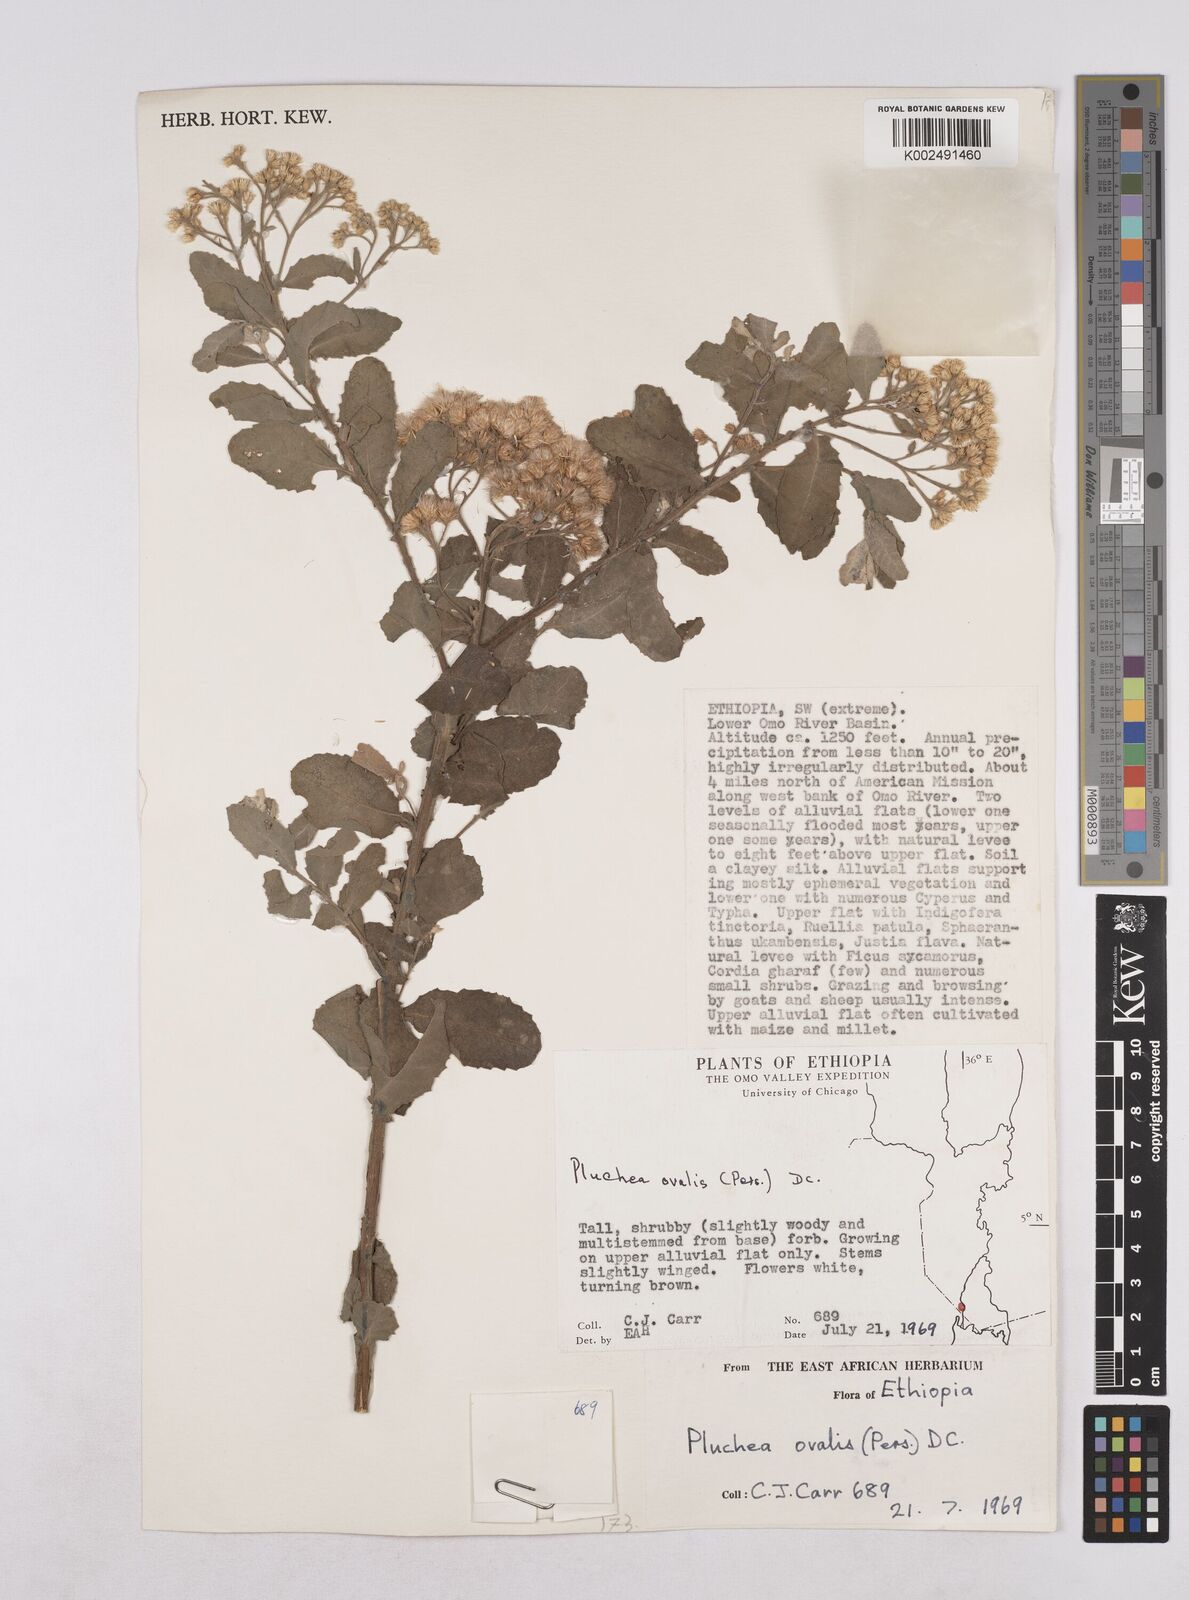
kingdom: Plantae
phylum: Tracheophyta
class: Magnoliopsida
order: Asterales
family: Asteraceae
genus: Pluchea
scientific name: Pluchea ovalis
